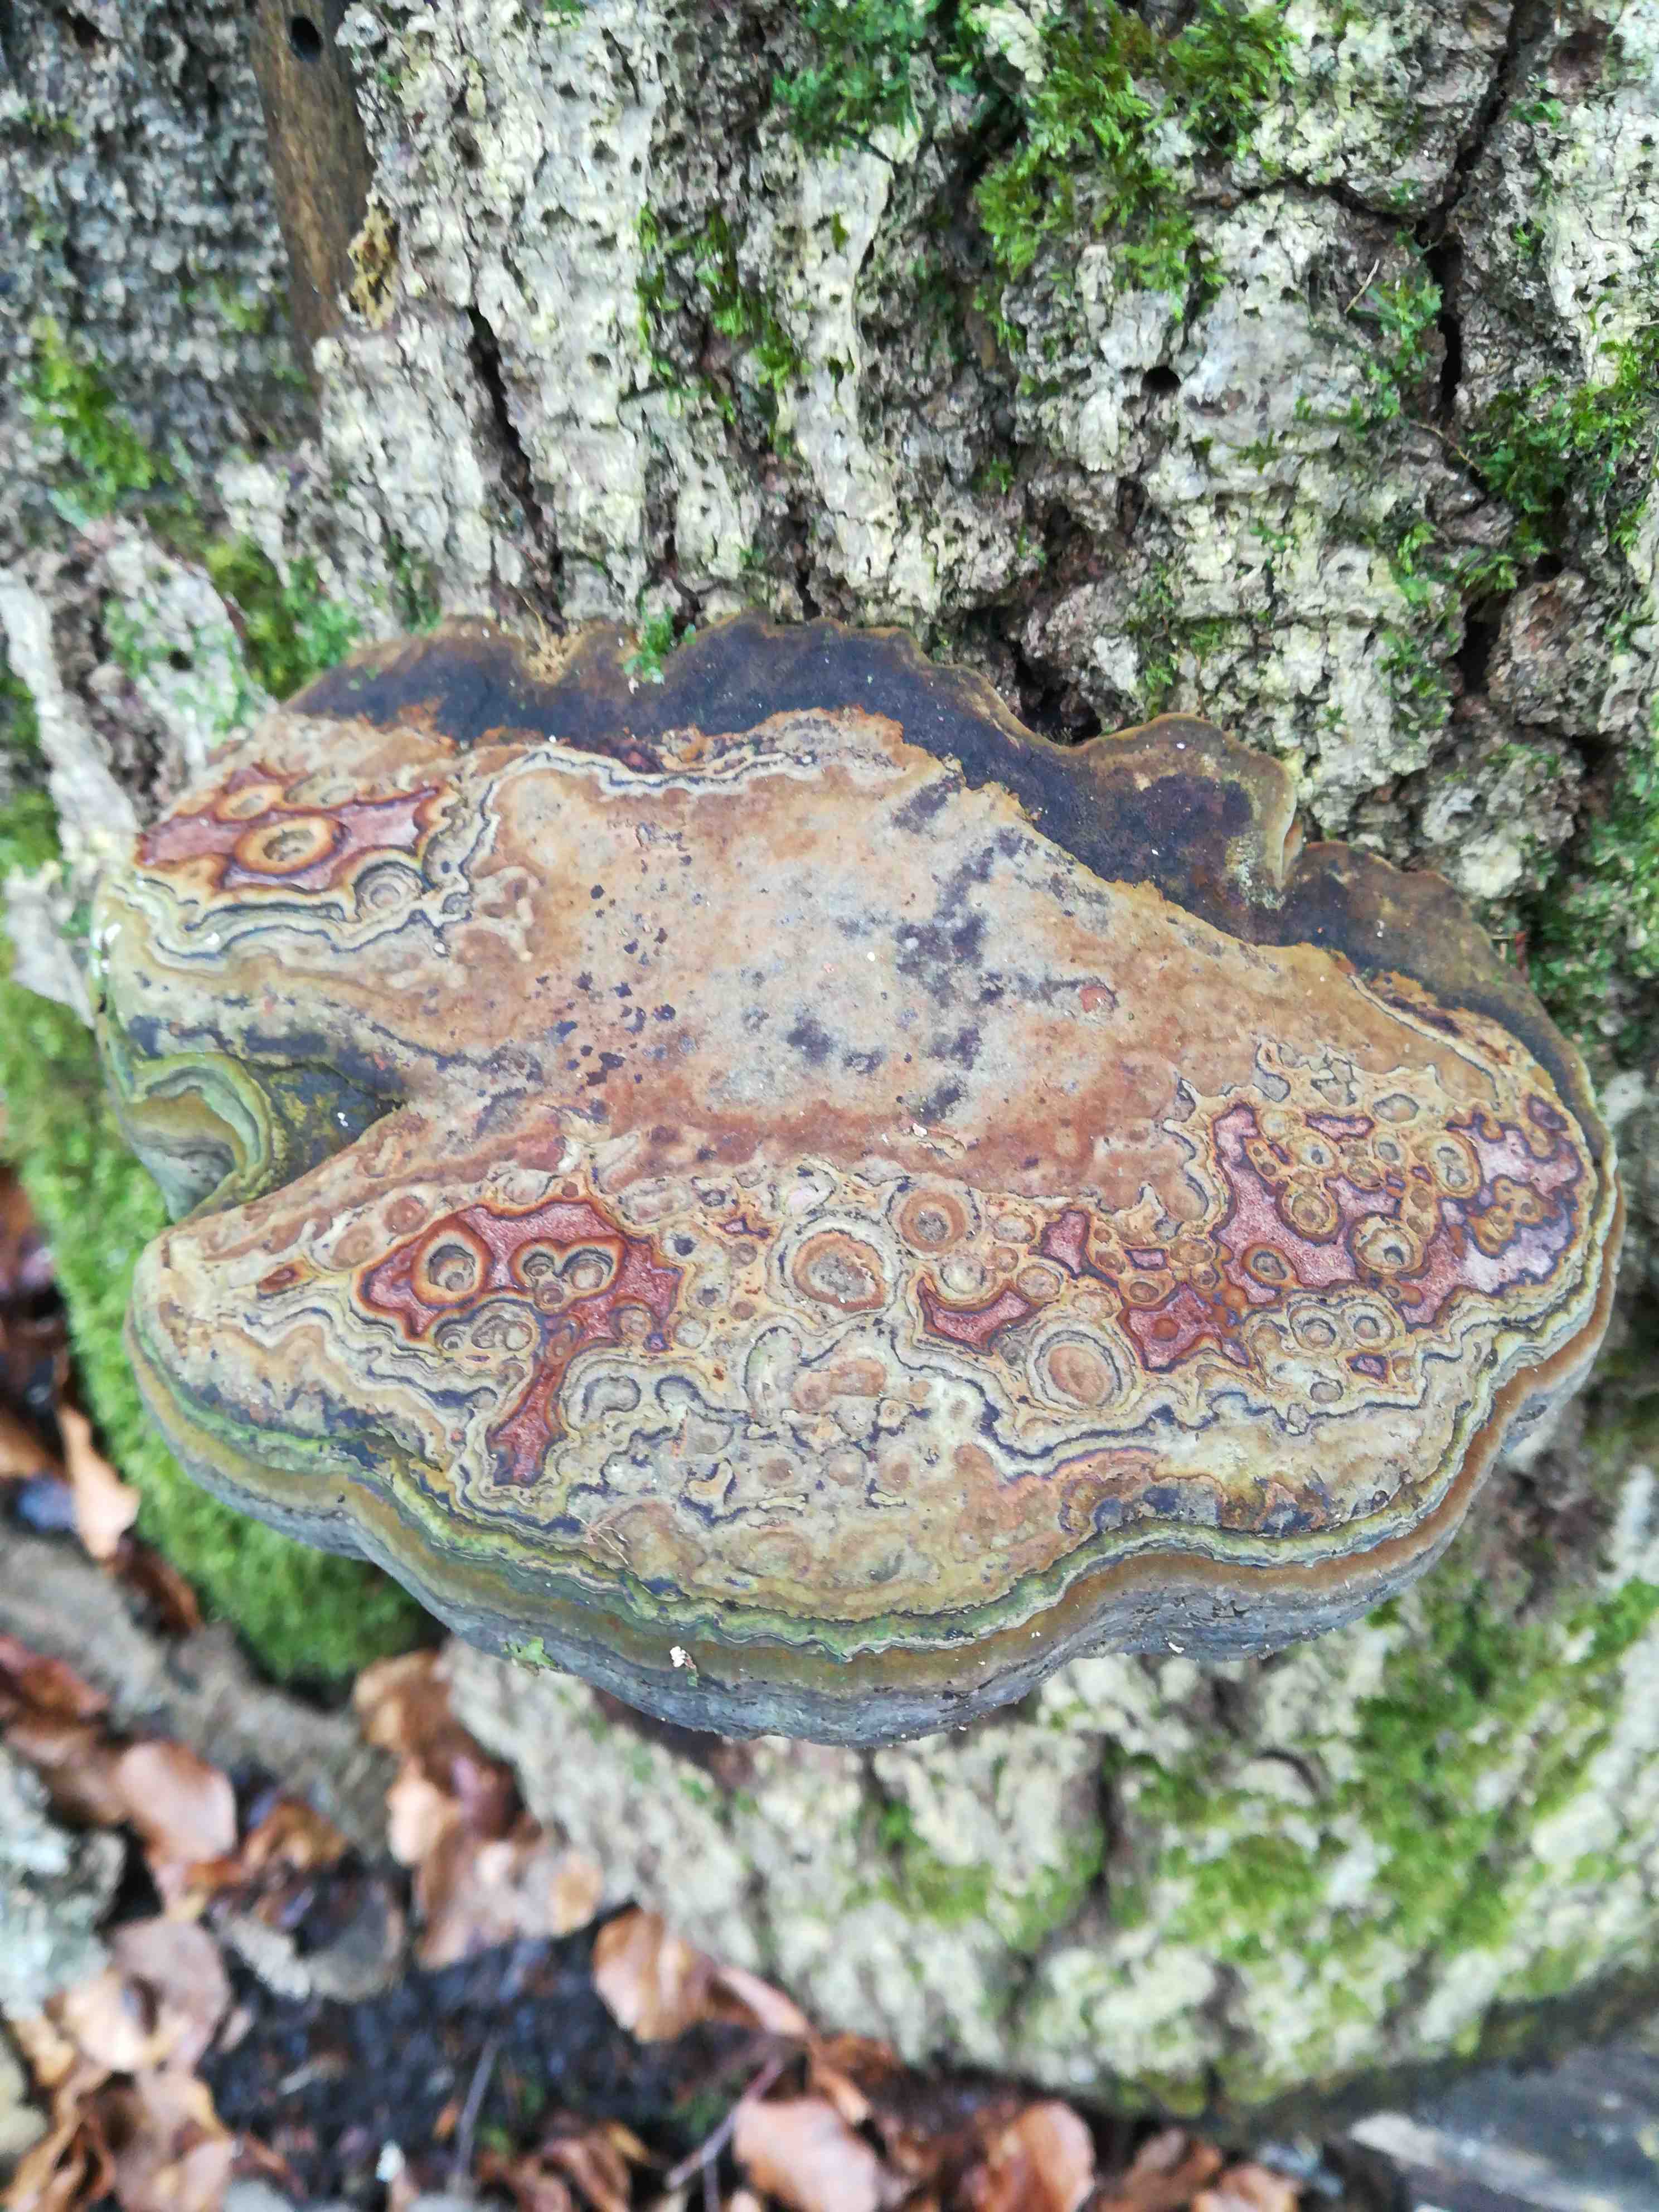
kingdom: Fungi
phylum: Basidiomycota
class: Agaricomycetes
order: Polyporales
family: Polyporaceae
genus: Fomes
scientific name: Fomes fomentarius
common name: tøndersvamp
